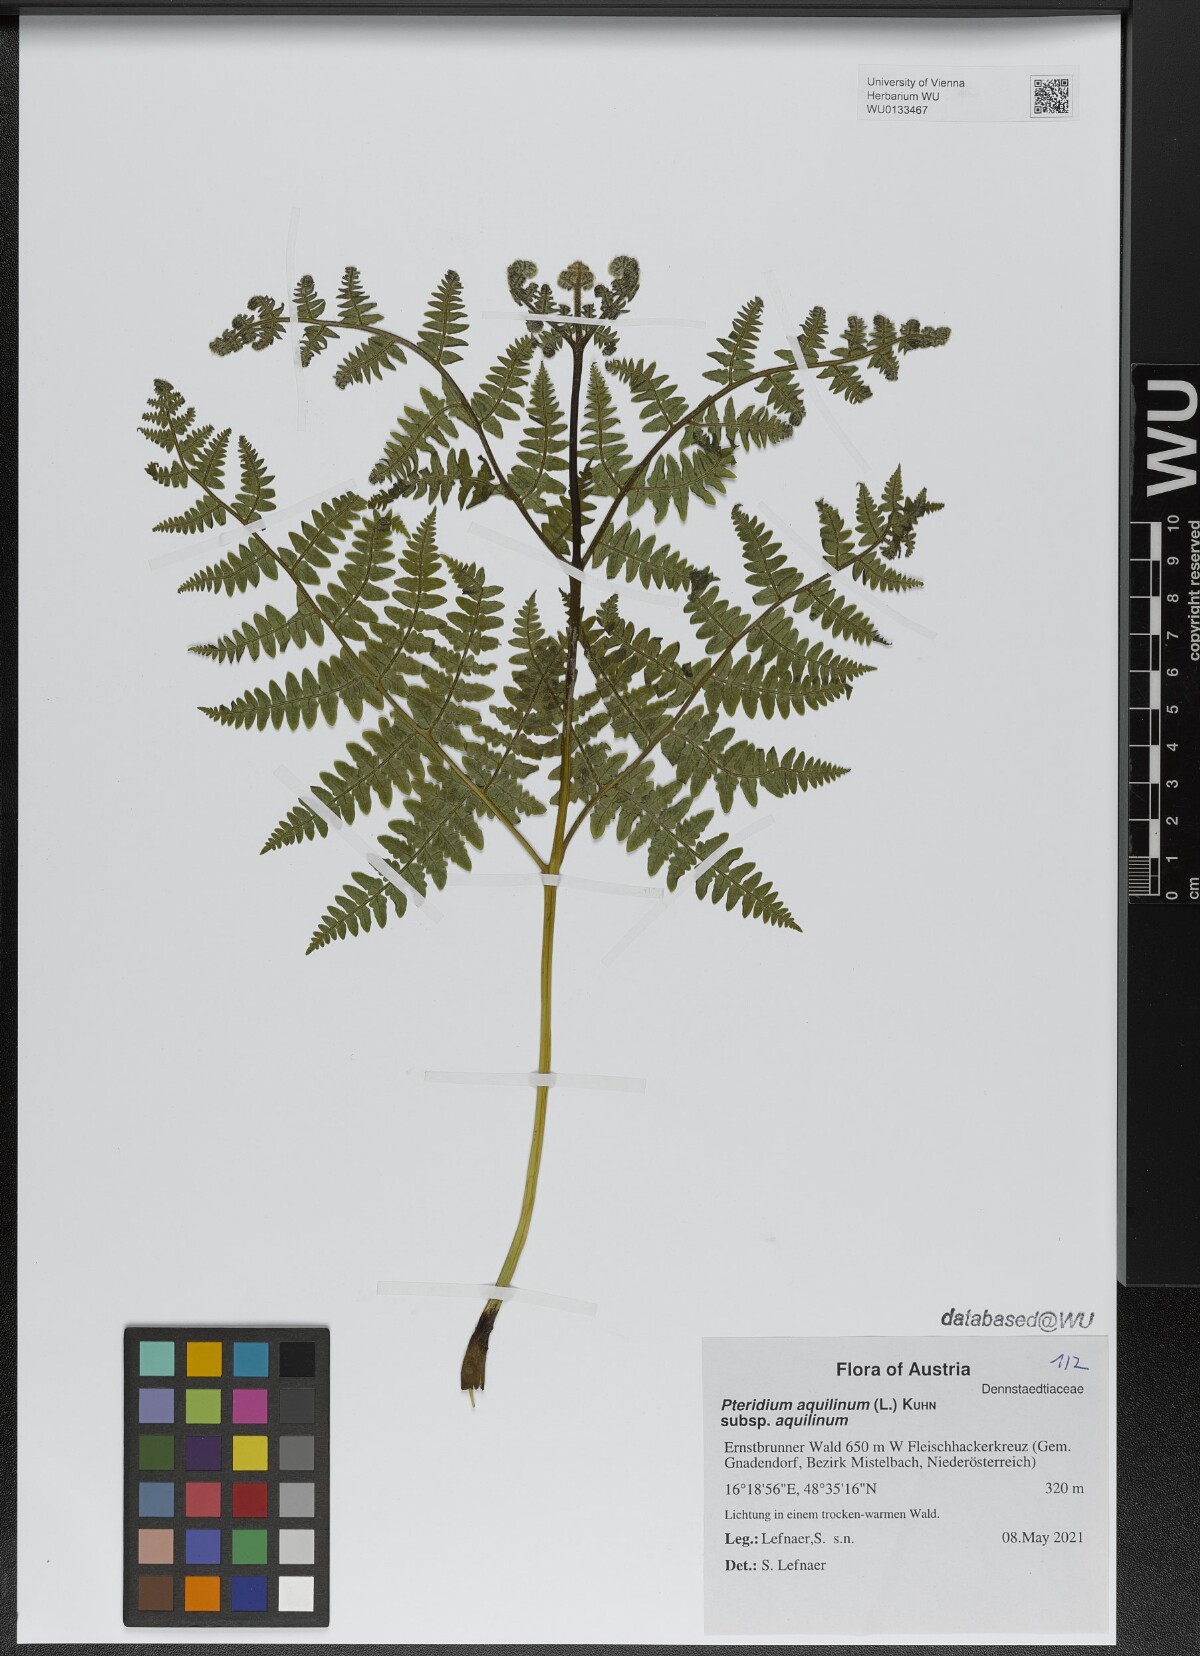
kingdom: Plantae
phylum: Tracheophyta
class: Polypodiopsida
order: Polypodiales
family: Dennstaedtiaceae
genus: Pteridium
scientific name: Pteridium aquilinum
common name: Bracken
